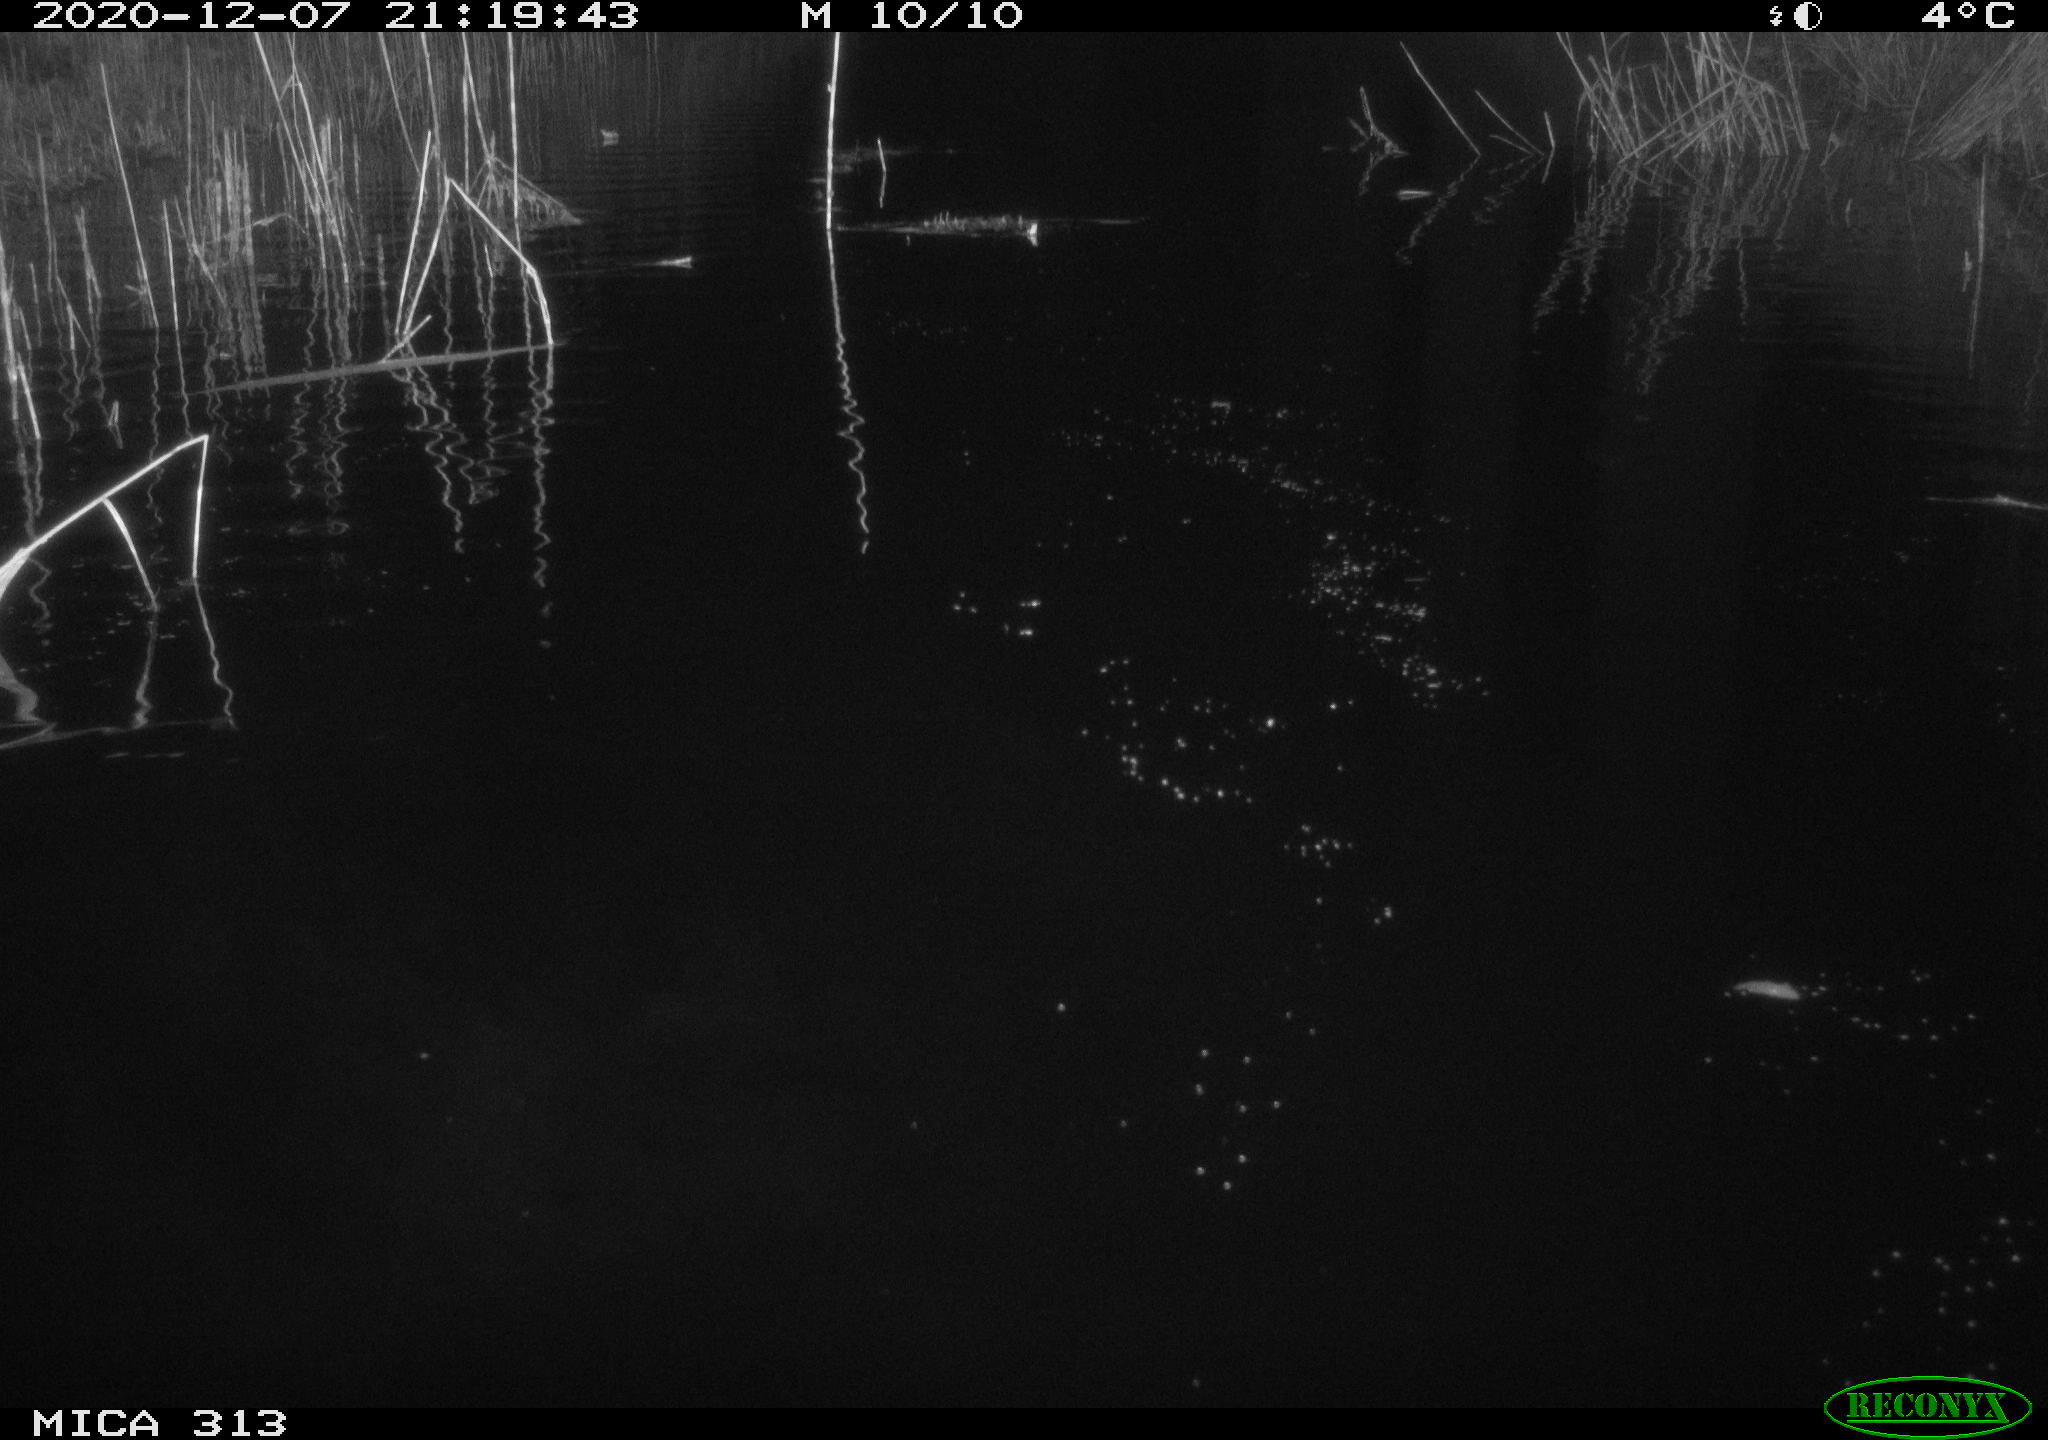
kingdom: Animalia
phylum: Chordata
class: Mammalia
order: Rodentia
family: Muridae
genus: Rattus
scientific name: Rattus norvegicus
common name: Brown rat
